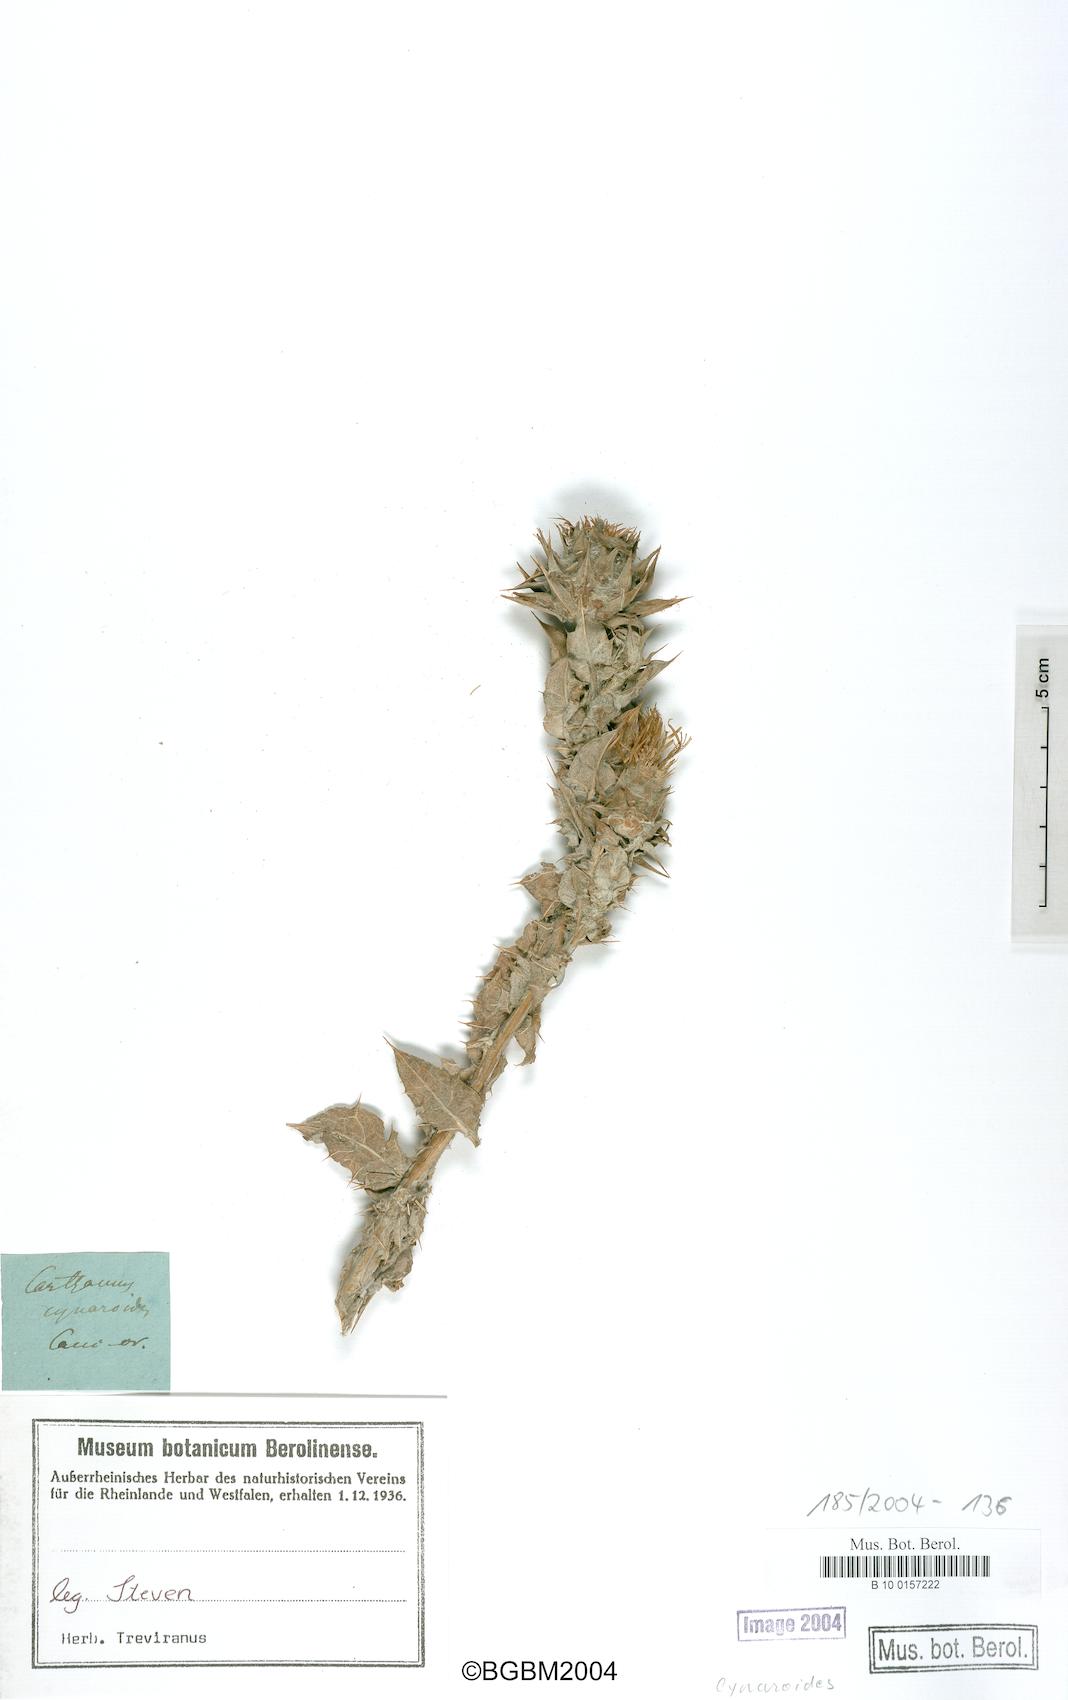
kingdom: Plantae
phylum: Tracheophyta
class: Magnoliopsida
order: Asterales
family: Asteraceae
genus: Cousinia
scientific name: Cousinia cynaroides
